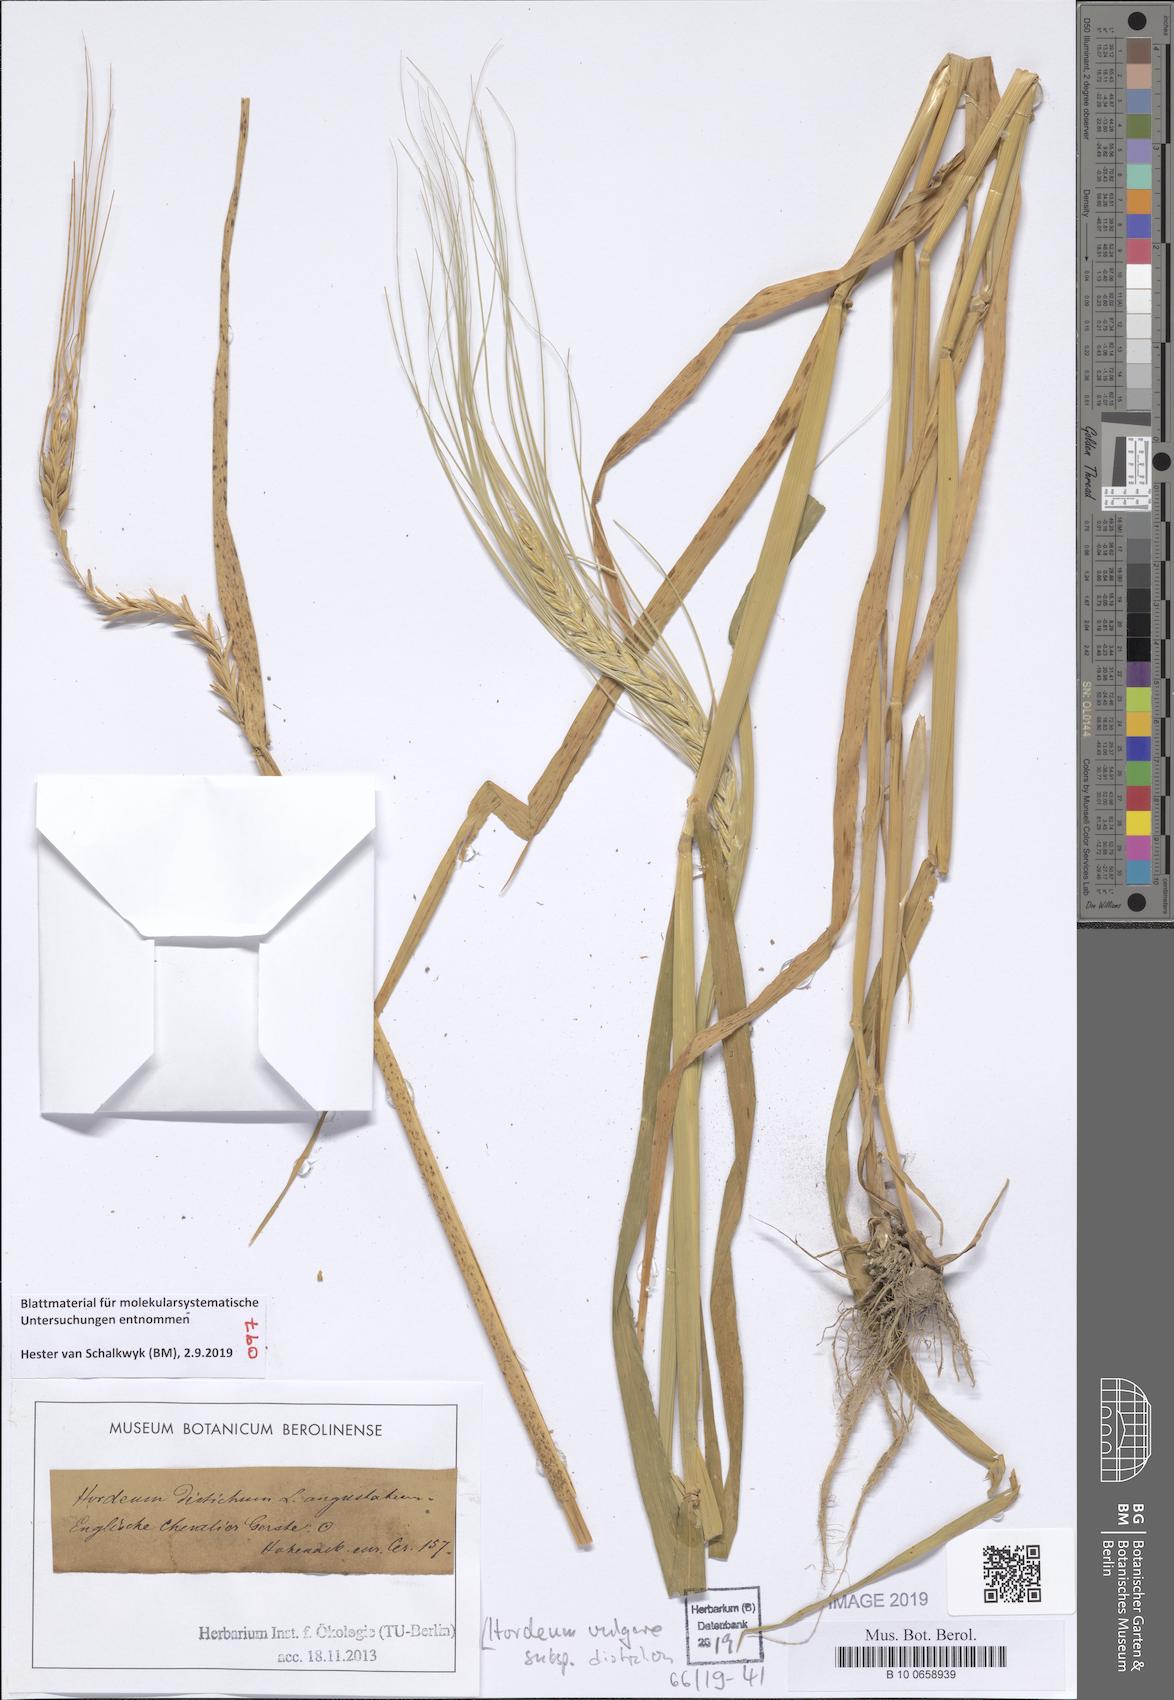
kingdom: Plantae
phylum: Tracheophyta
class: Liliopsida
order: Poales
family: Poaceae
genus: Hordeum
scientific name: Hordeum distichon
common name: Two-rowed barley
